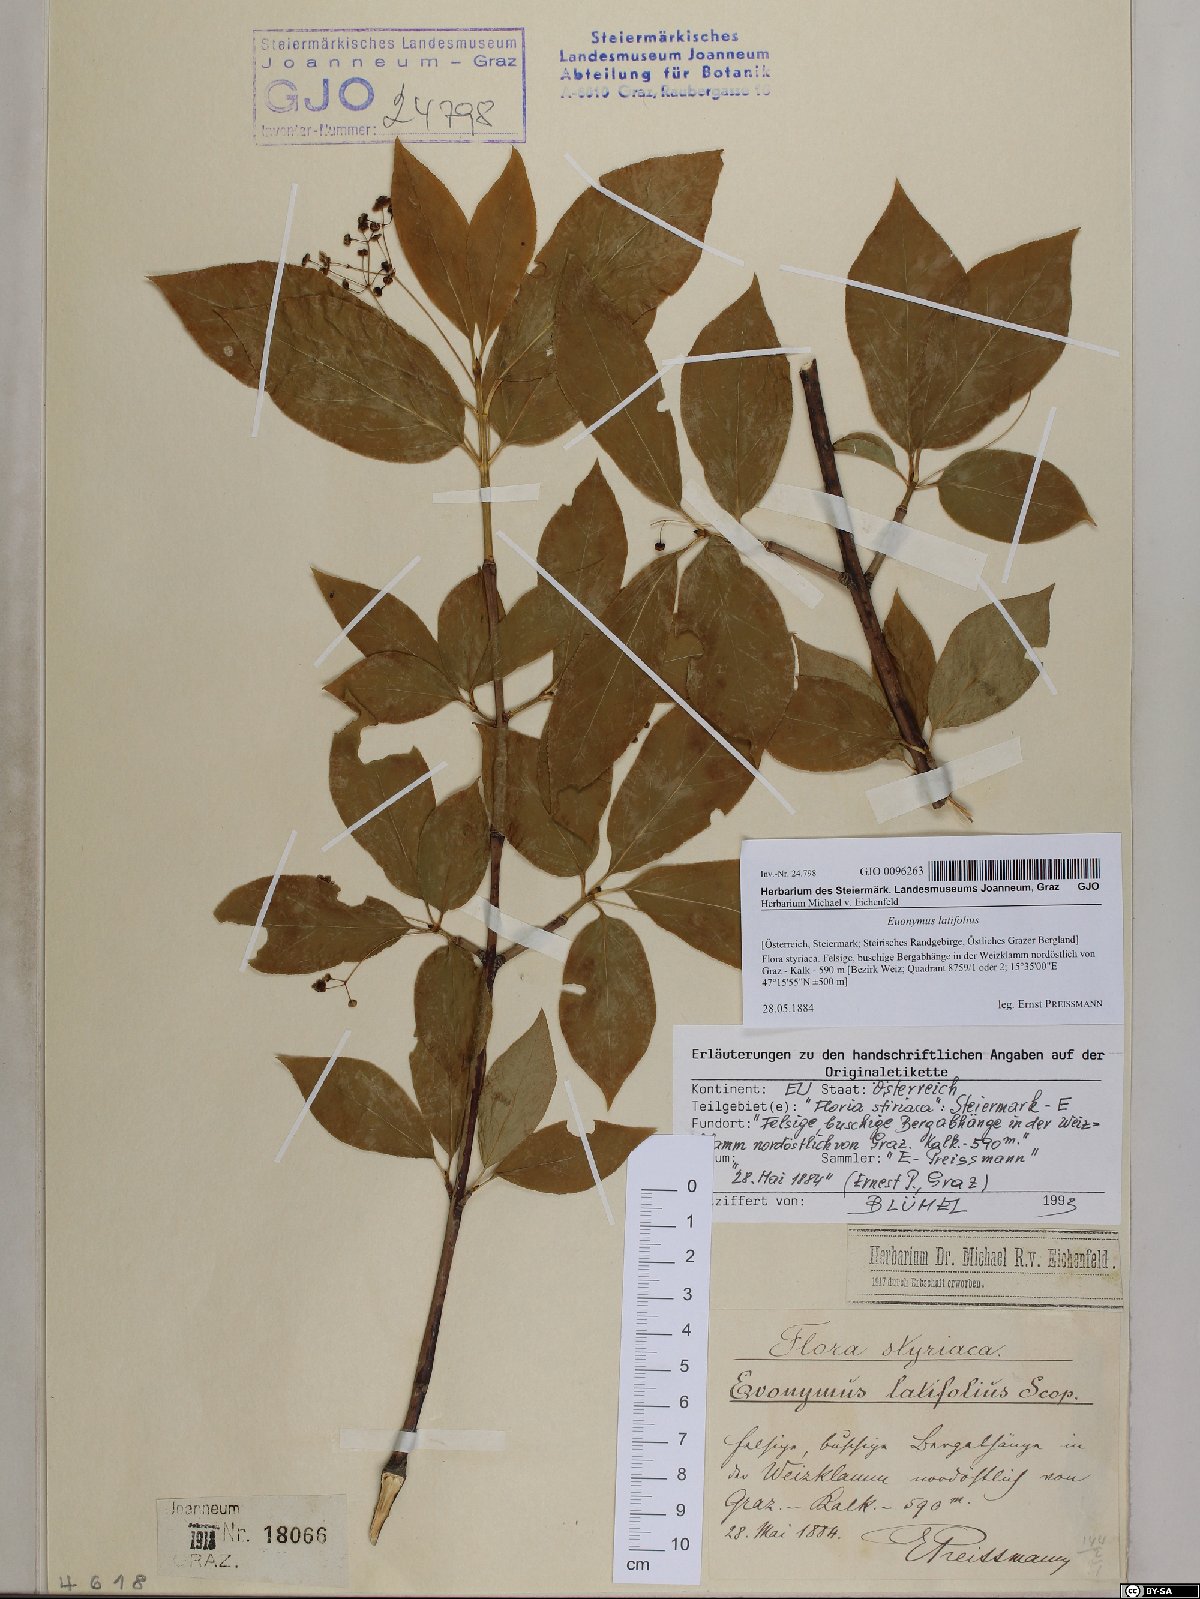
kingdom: Plantae
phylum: Tracheophyta
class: Magnoliopsida
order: Celastrales
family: Celastraceae
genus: Euonymus
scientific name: Euonymus latifolius
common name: Large-leaved spindle
